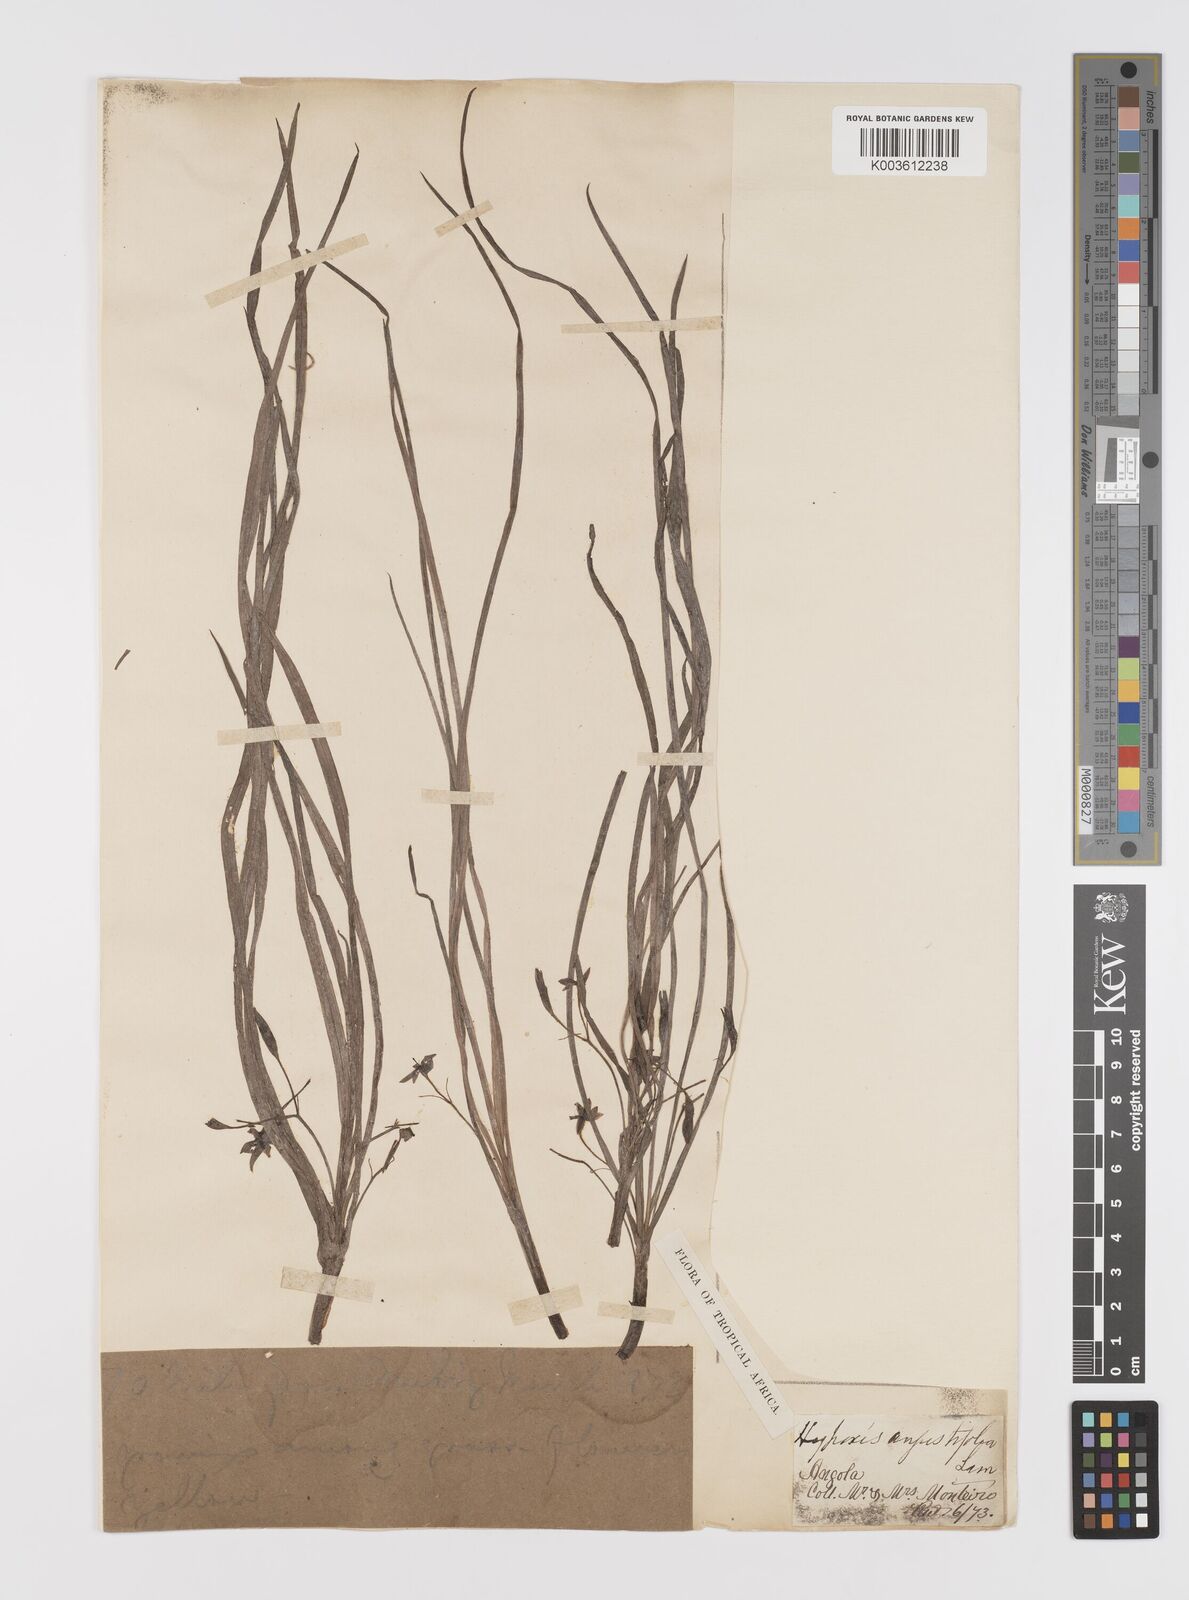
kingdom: Plantae
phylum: Tracheophyta
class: Liliopsida
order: Asparagales
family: Hypoxidaceae
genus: Hypoxis
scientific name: Hypoxis angustifolia
